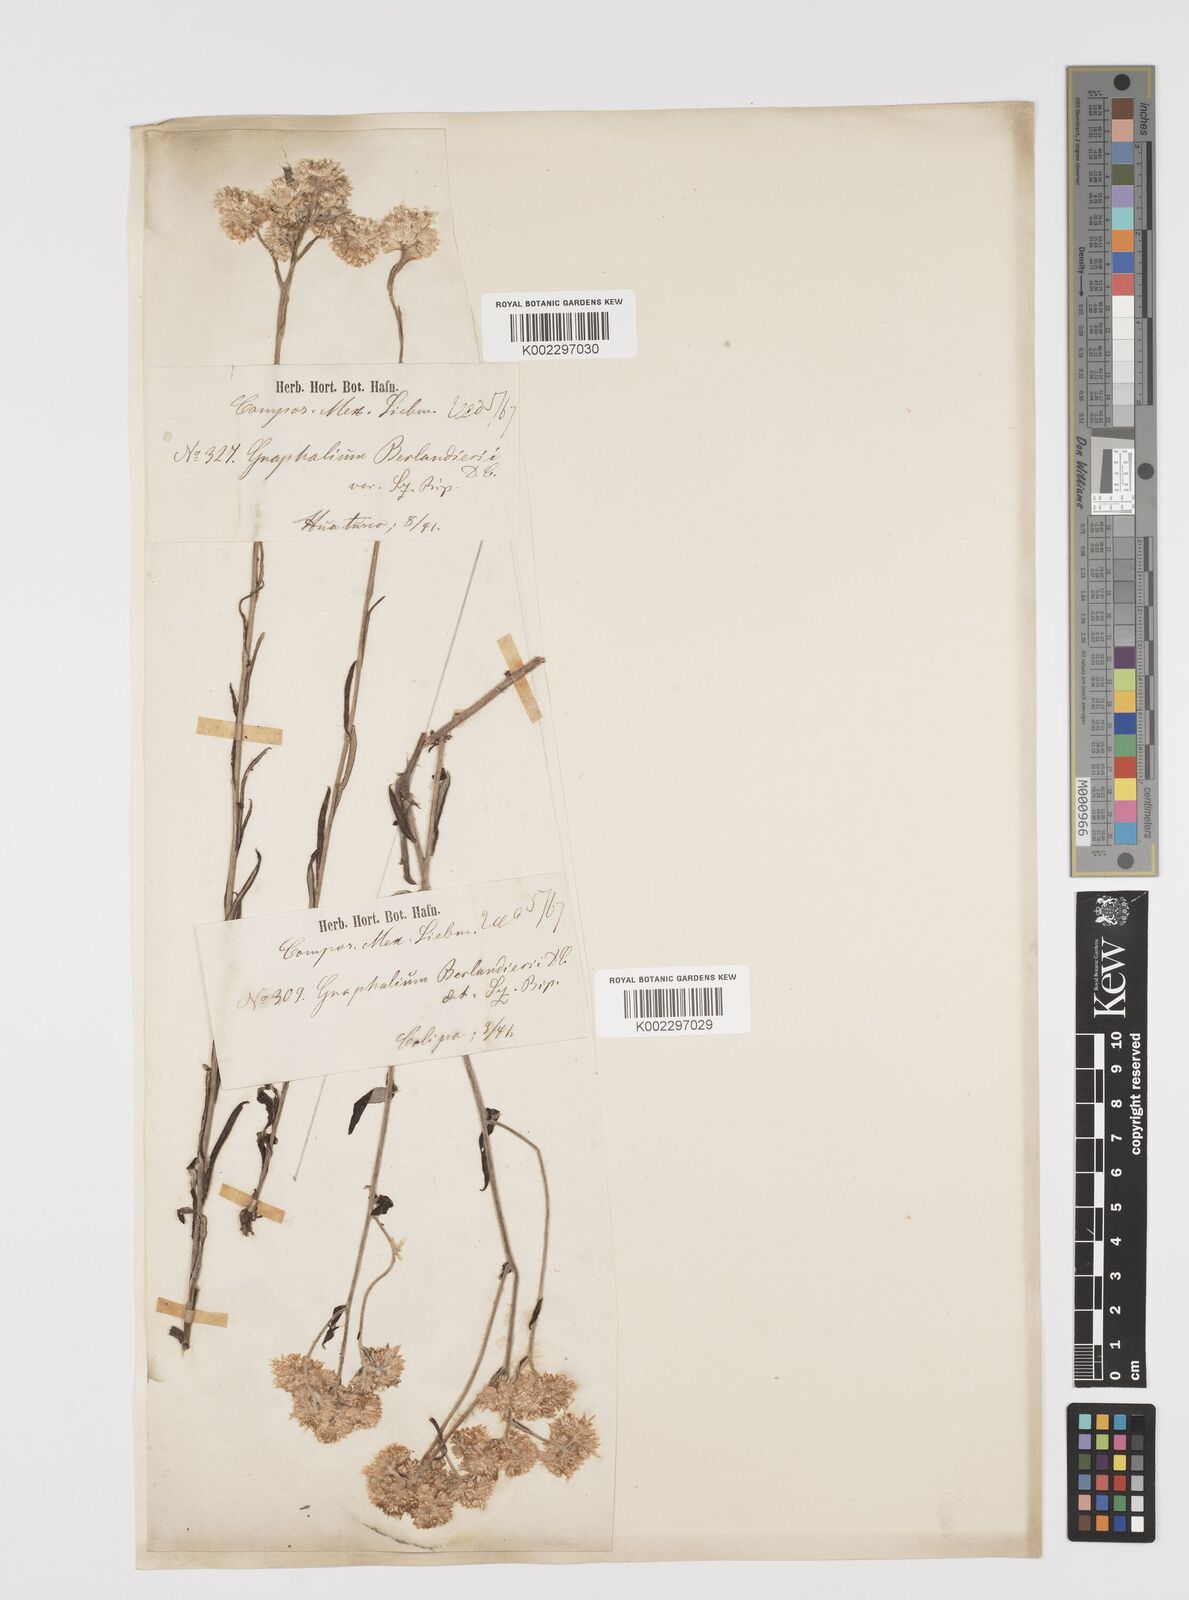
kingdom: Plantae
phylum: Tracheophyta
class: Magnoliopsida
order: Asterales
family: Asteraceae
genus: Pseudognaphalium
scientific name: Pseudognaphalium
